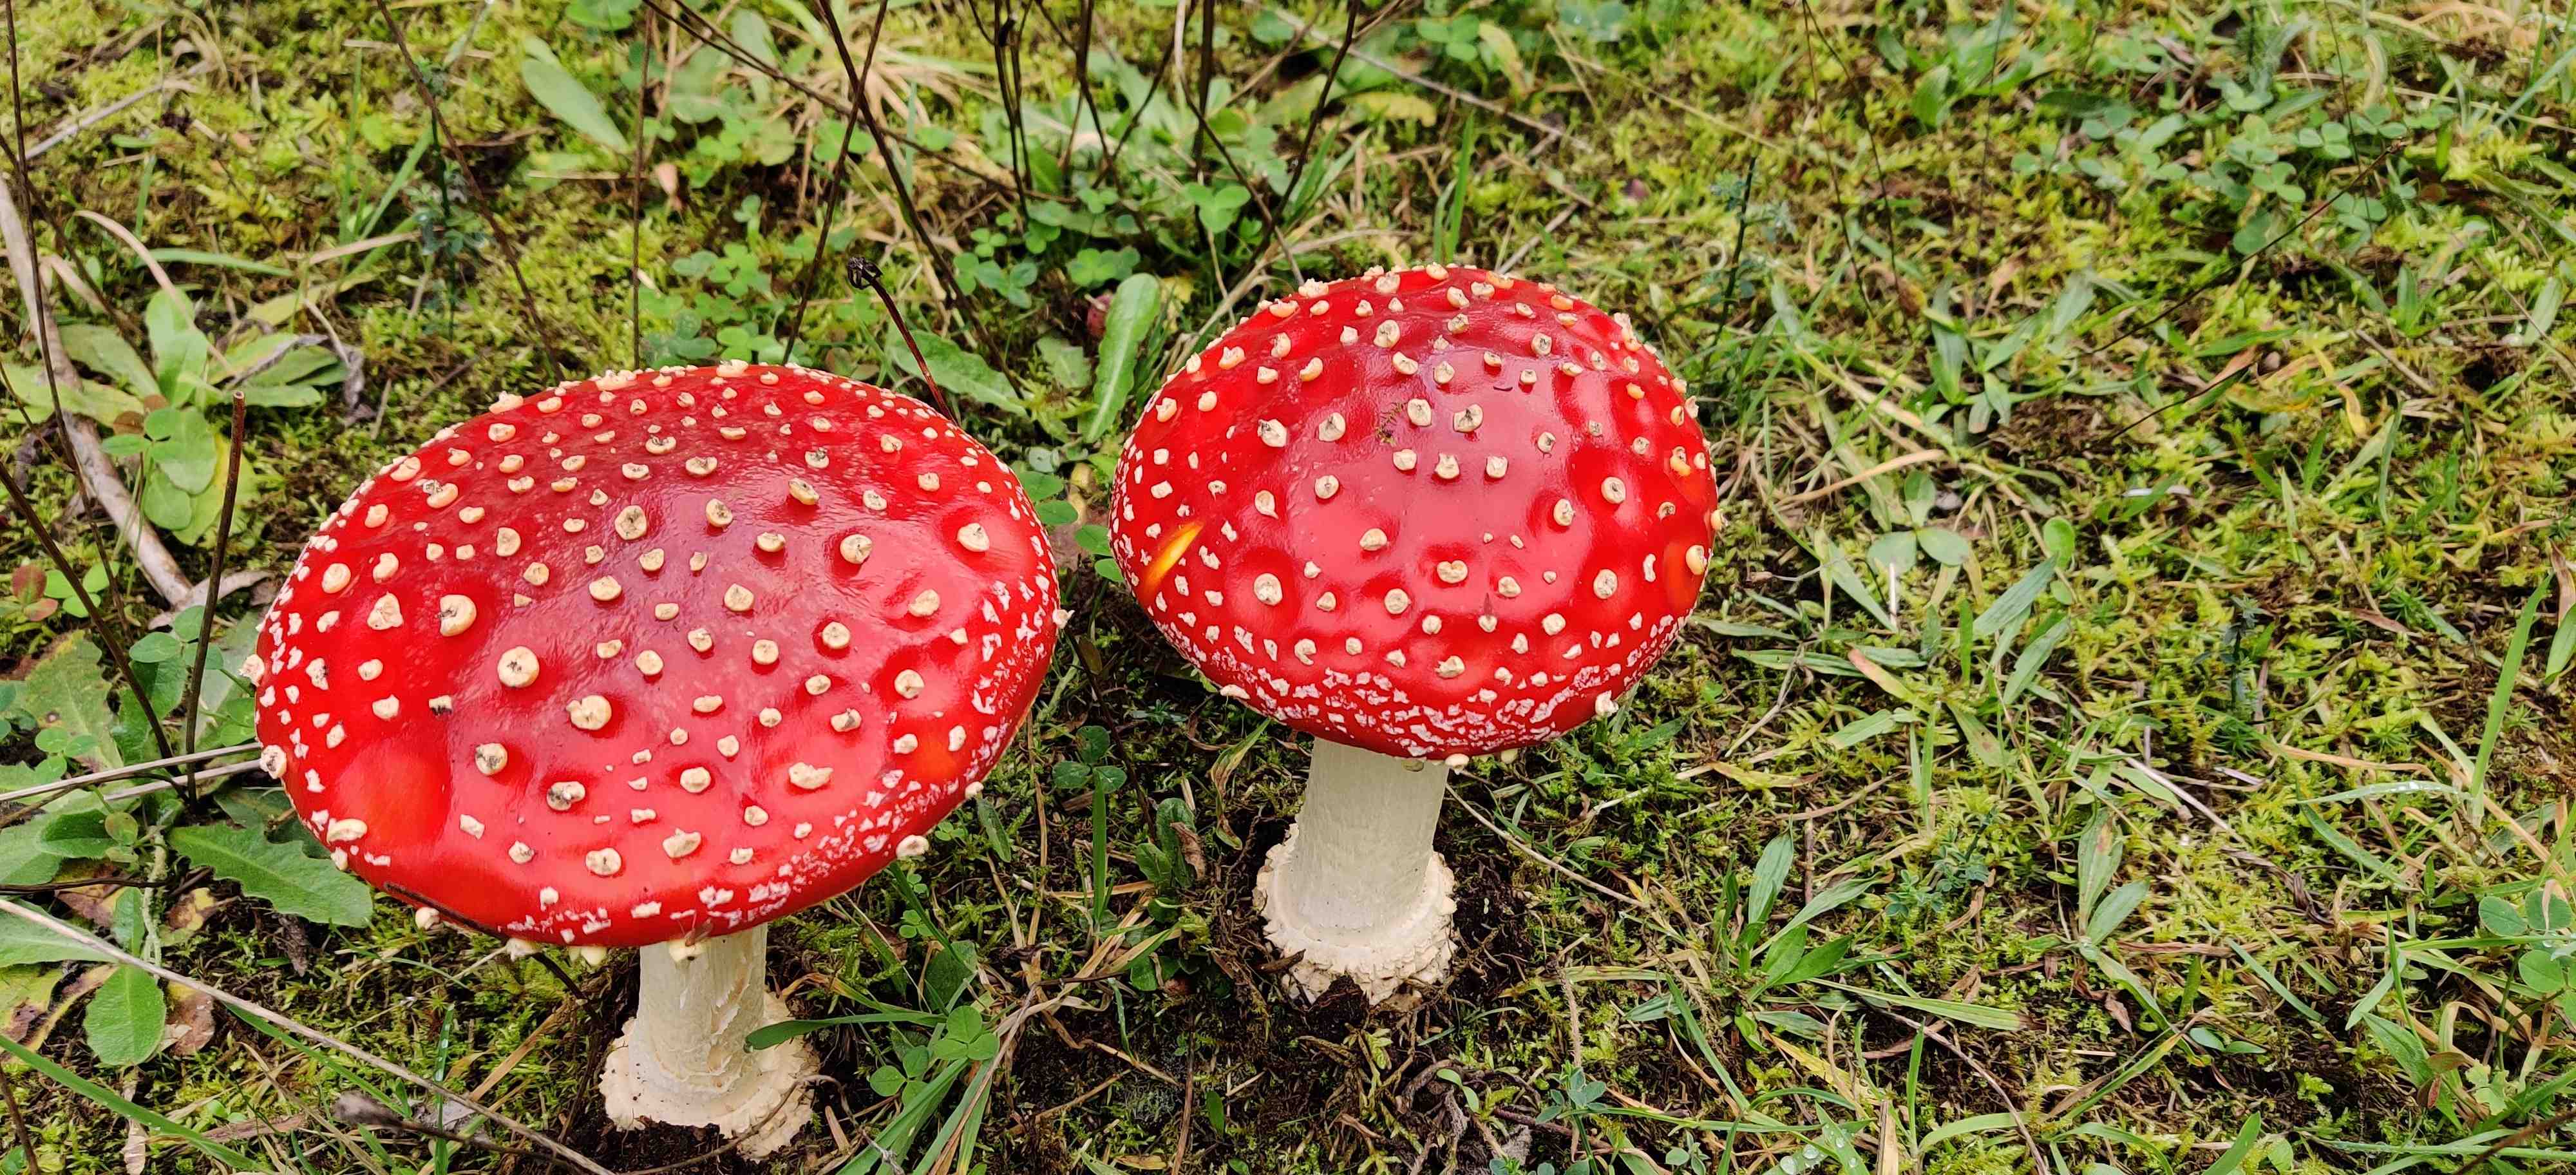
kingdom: Fungi
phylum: Basidiomycota
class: Agaricomycetes
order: Agaricales
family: Amanitaceae
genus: Amanita
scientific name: Amanita muscaria
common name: rød fluesvamp
